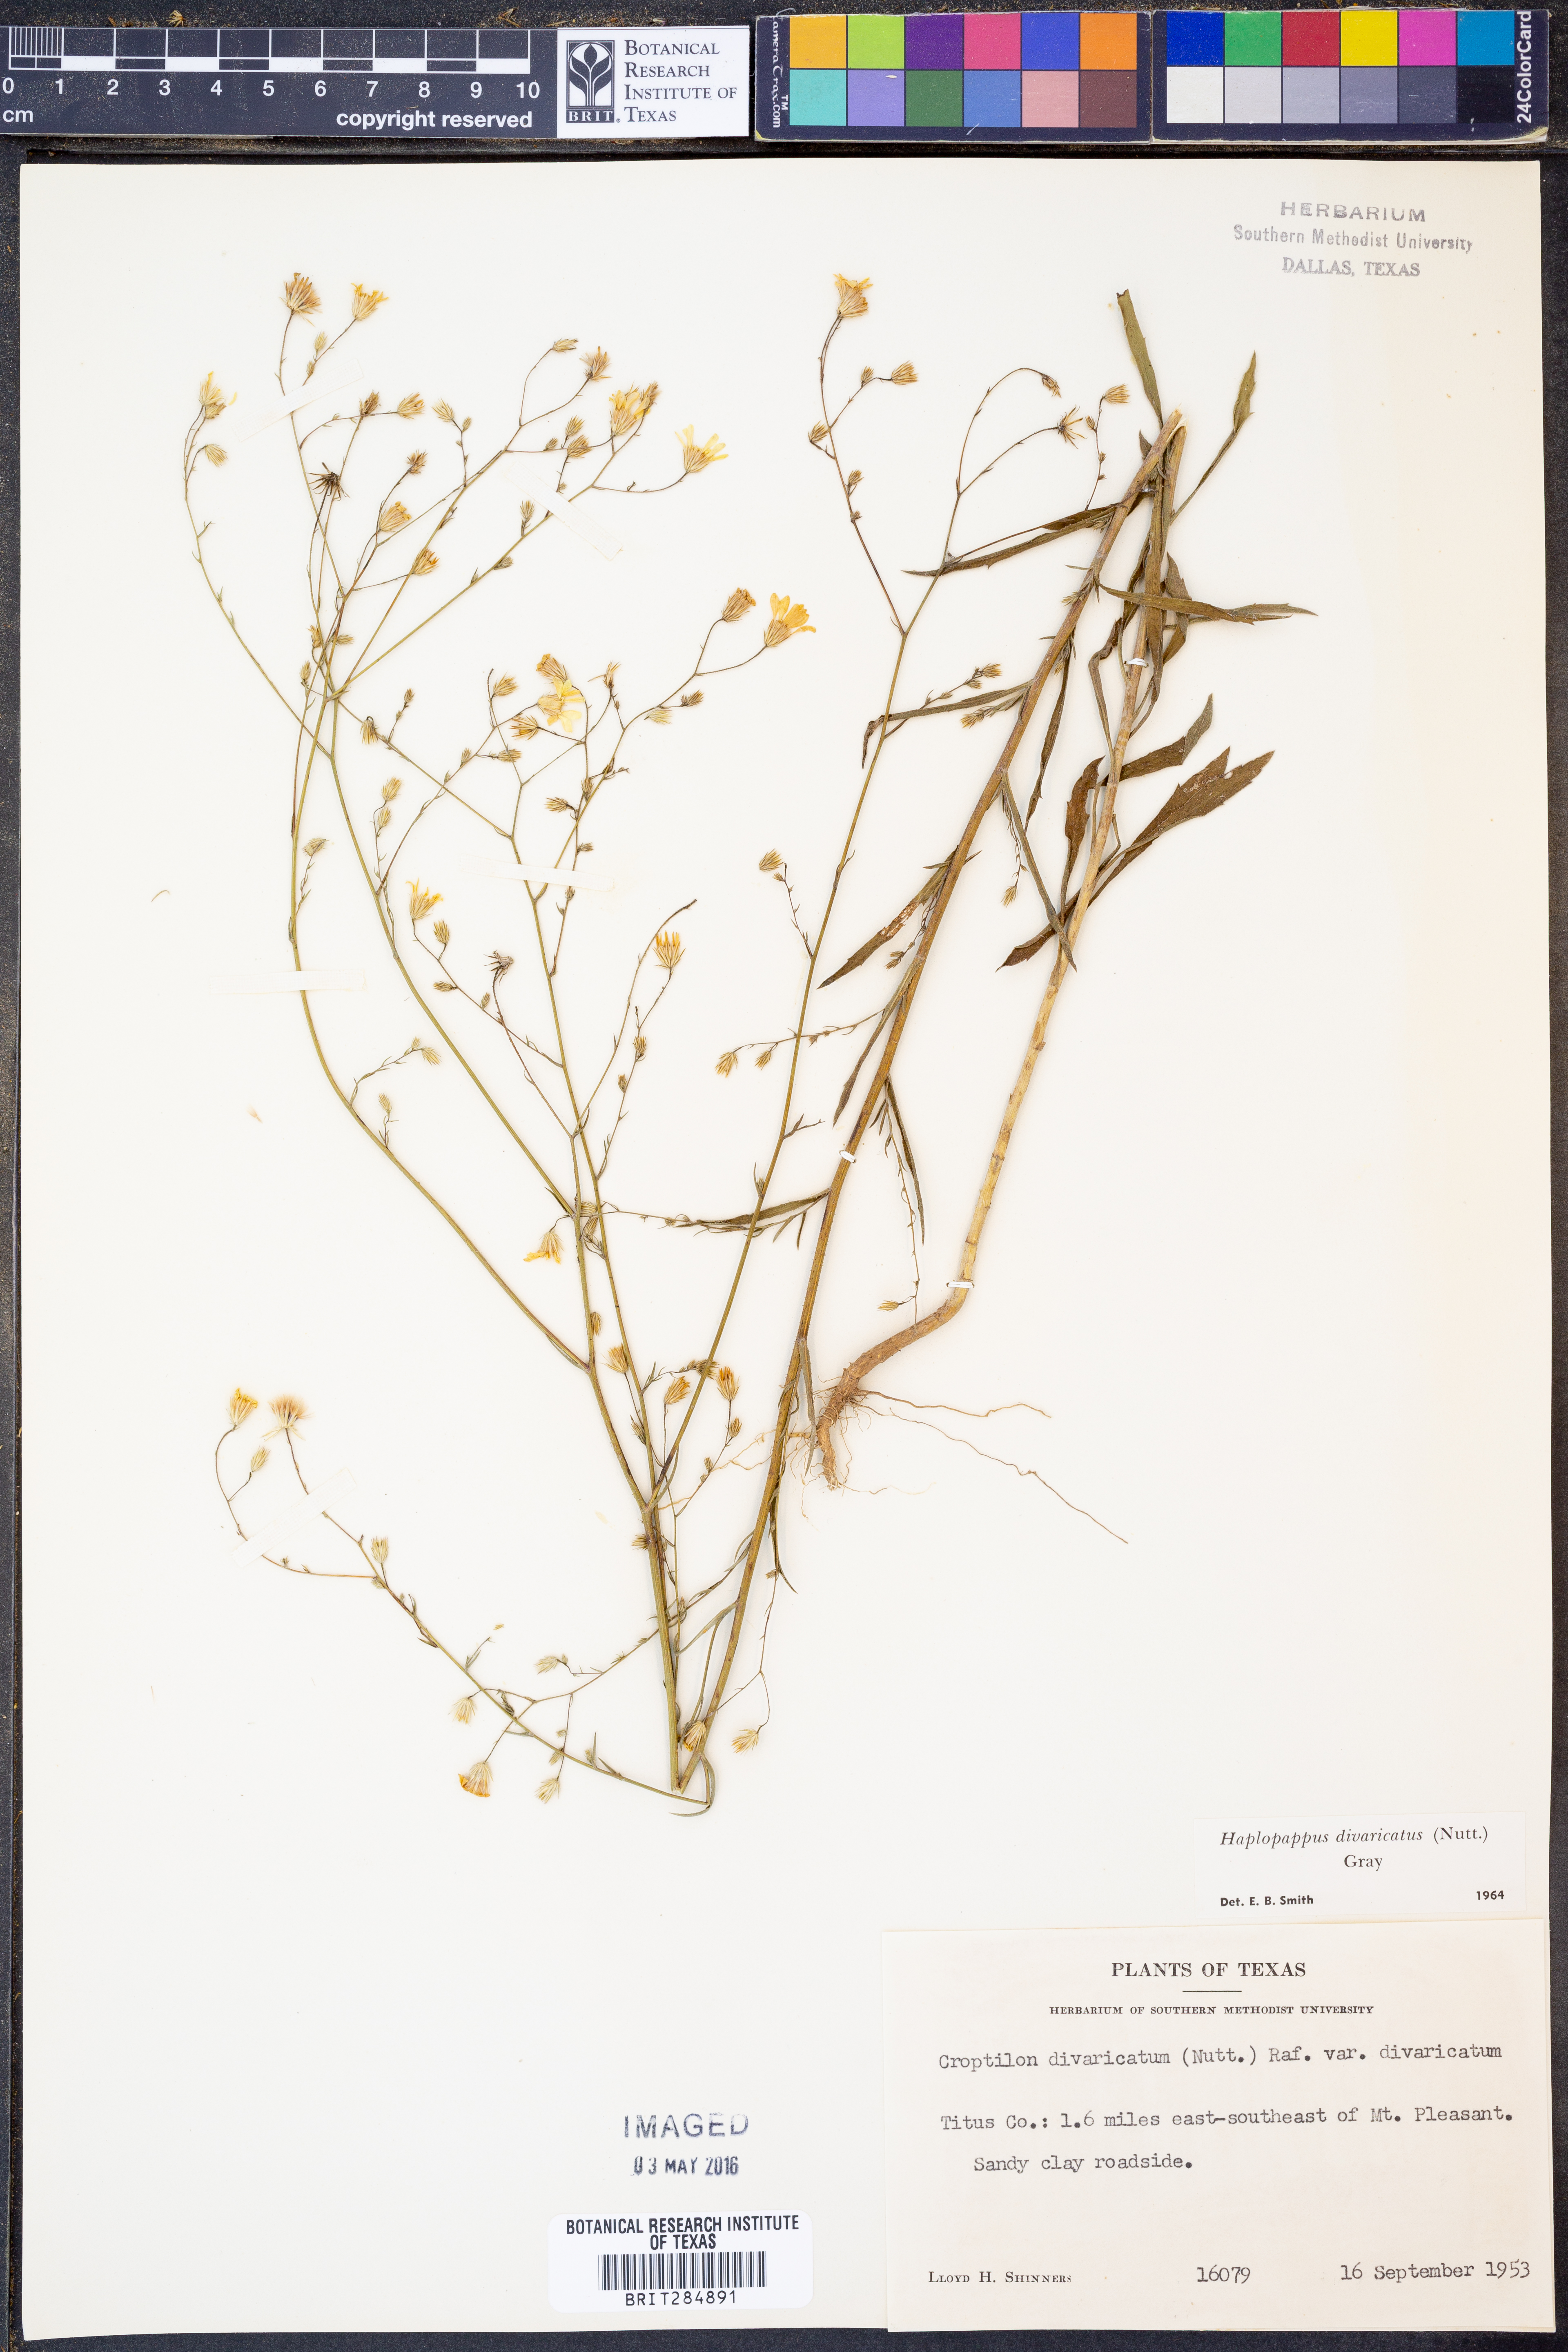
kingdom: Plantae
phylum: Tracheophyta
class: Magnoliopsida
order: Asterales
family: Asteraceae
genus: Croptilon
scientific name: Croptilon divaricatum
